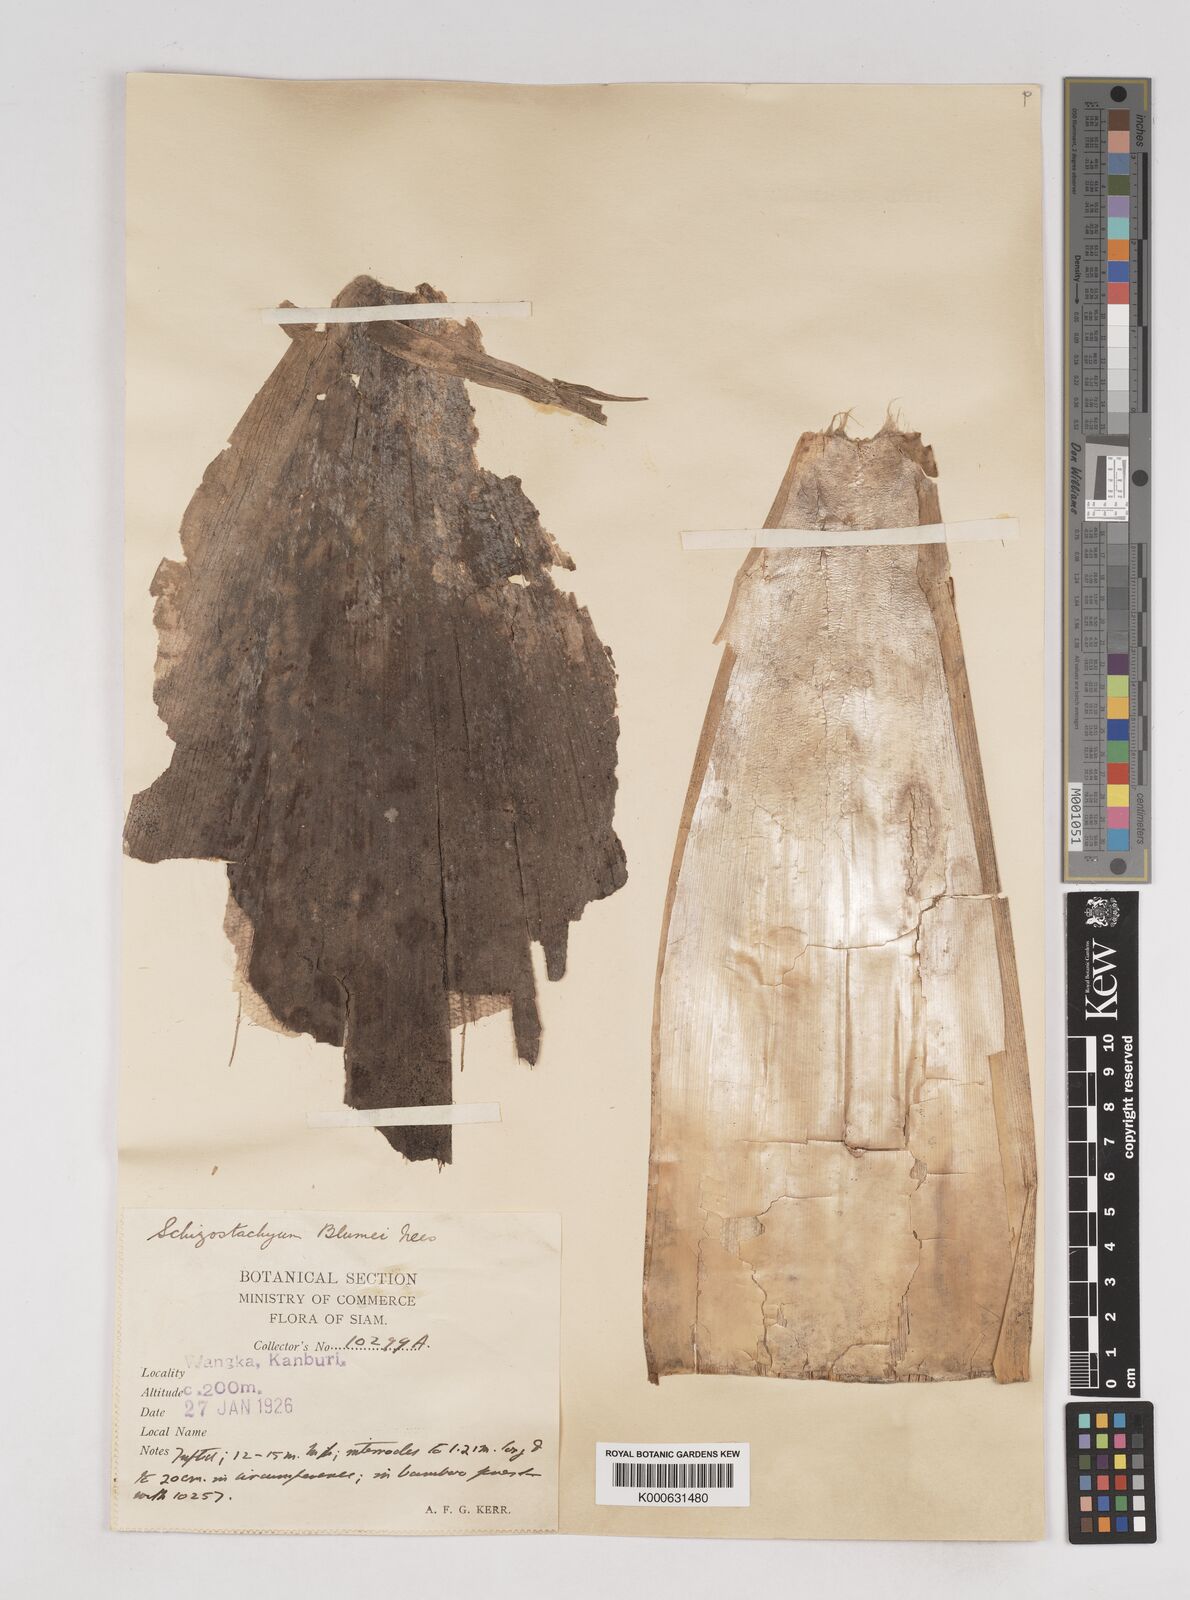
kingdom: Plantae
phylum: Tracheophyta
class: Liliopsida
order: Poales
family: Poaceae
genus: Schizostachyum
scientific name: Schizostachyum
